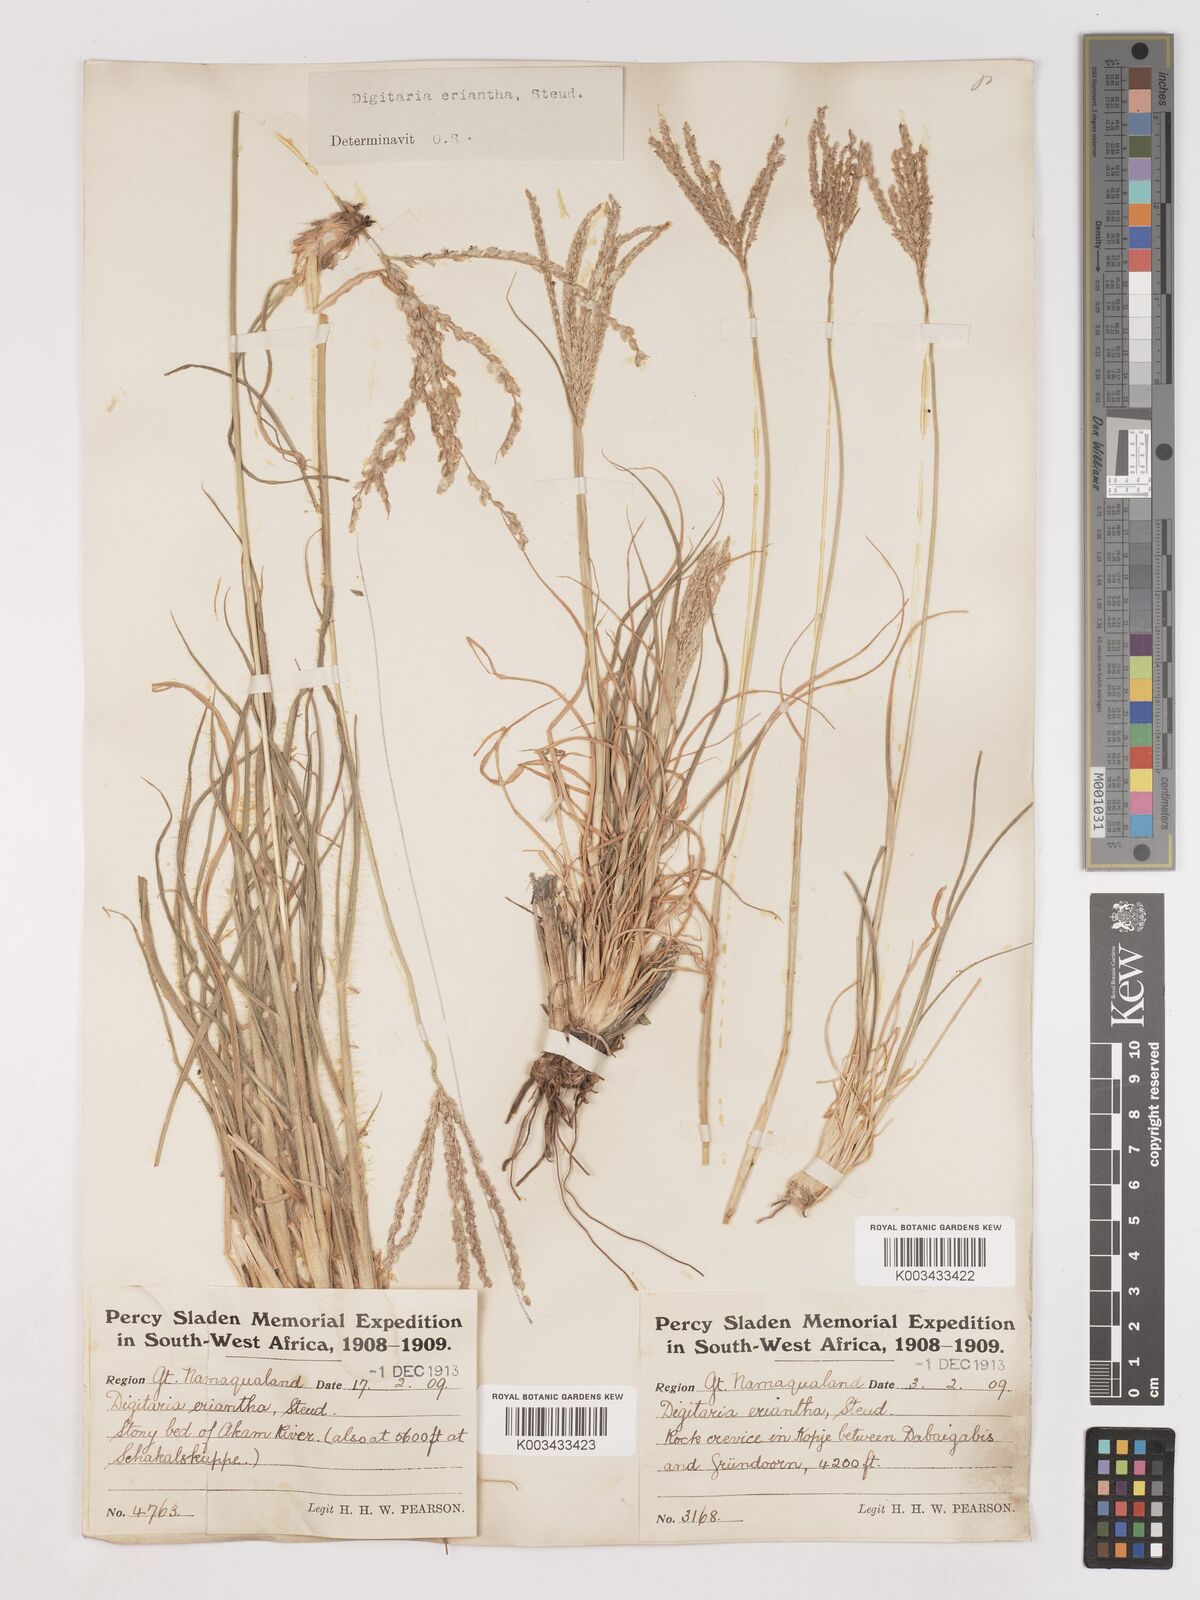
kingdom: Plantae
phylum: Tracheophyta
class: Liliopsida
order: Poales
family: Poaceae
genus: Digitaria
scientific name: Digitaria eriantha
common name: Digitgrass
